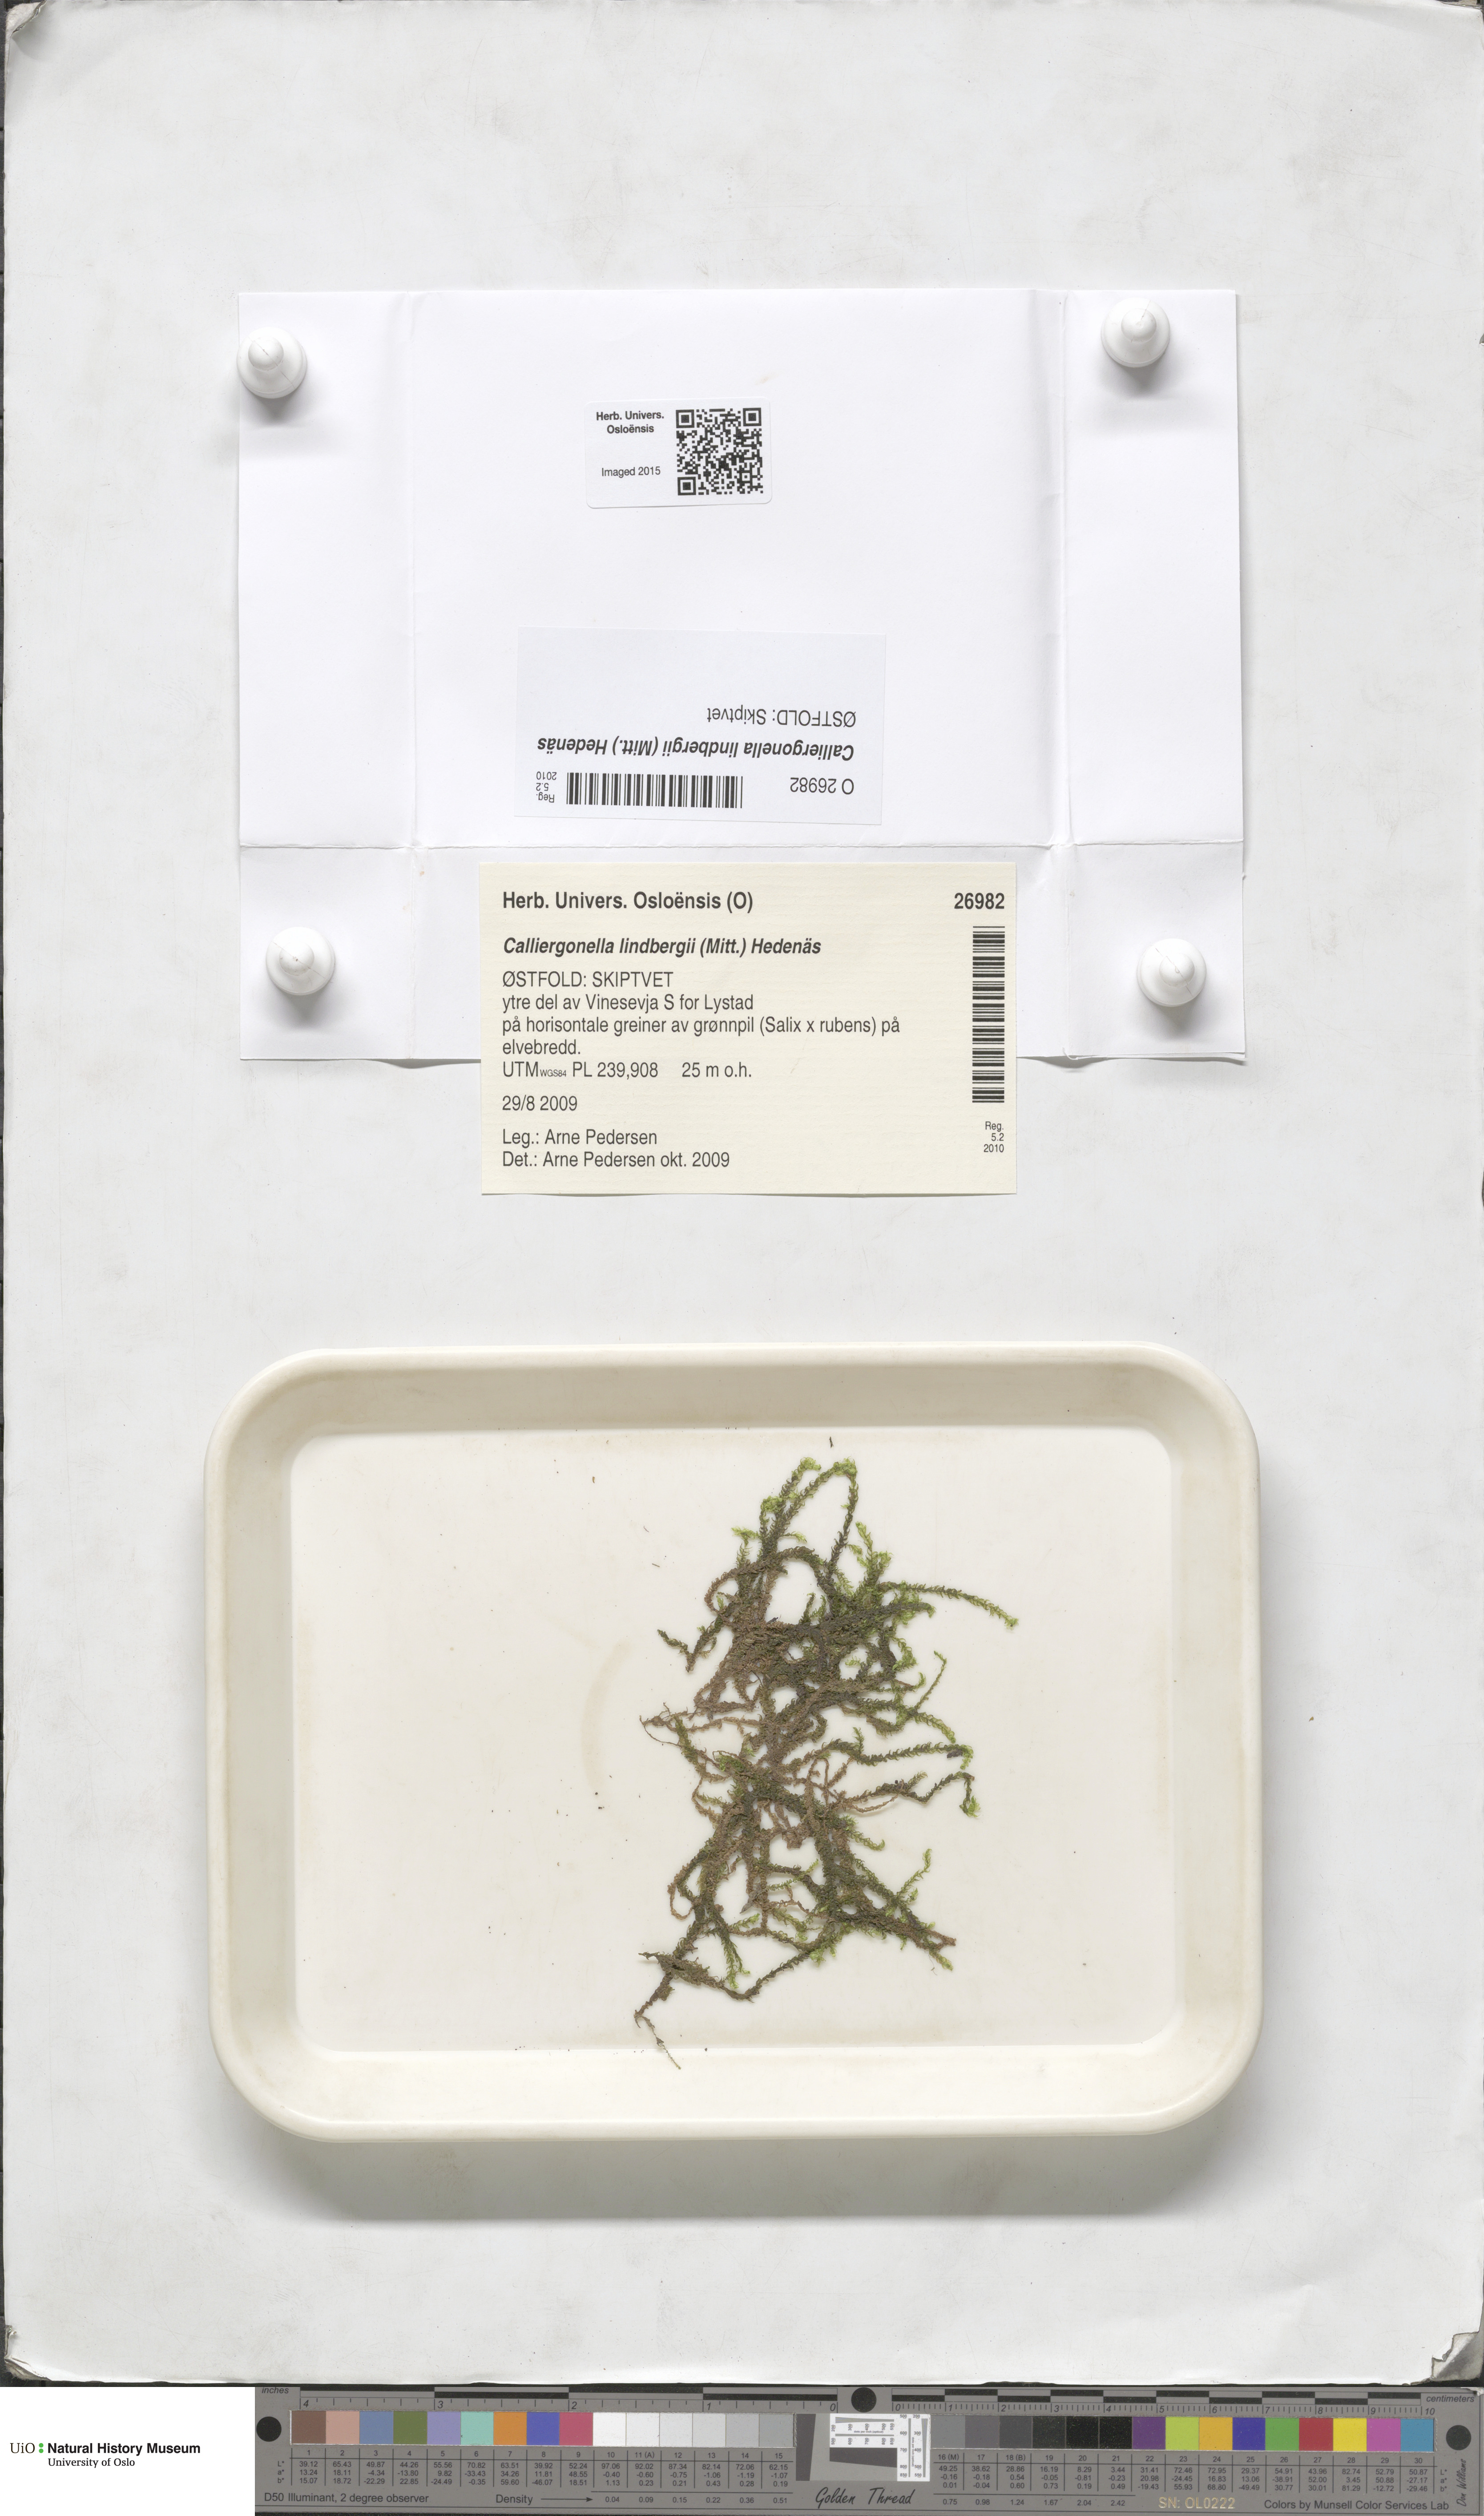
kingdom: Plantae
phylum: Bryophyta
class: Bryopsida
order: Hypnales
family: Pylaisiaceae
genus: Calliergonella
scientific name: Calliergonella lindbergii
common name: Lindberg's plait-moss
